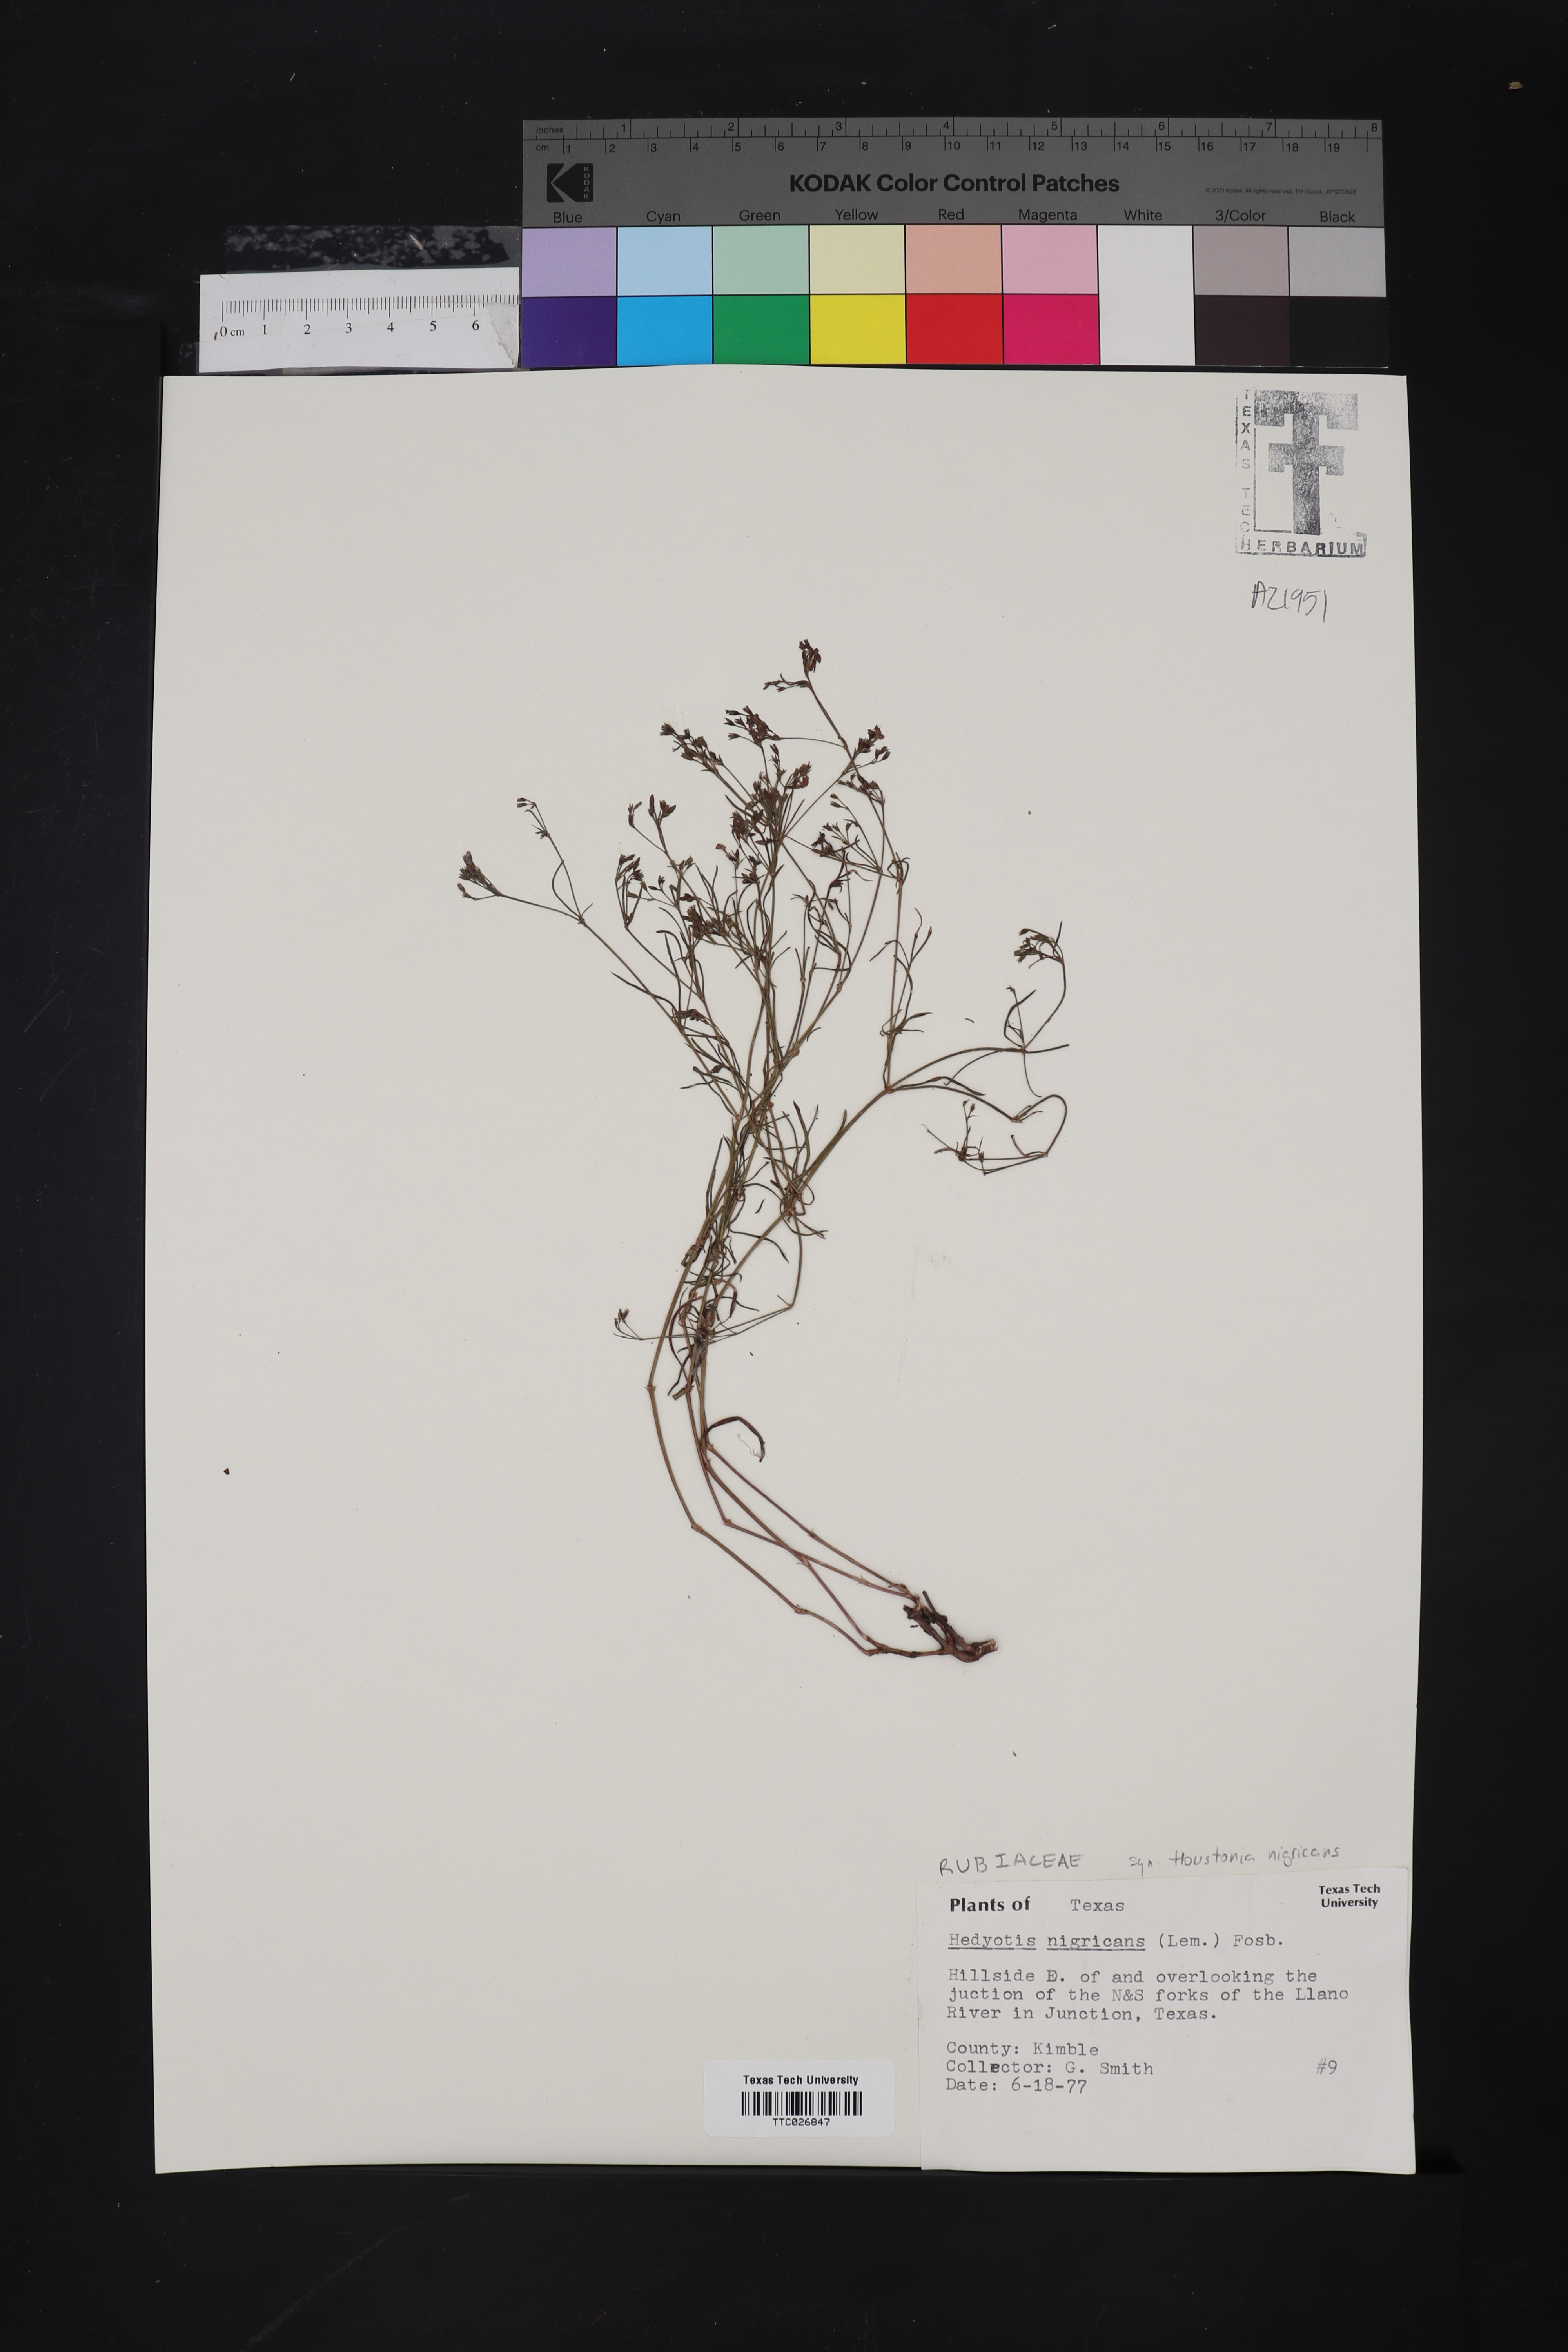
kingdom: Plantae
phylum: Tracheophyta
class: Magnoliopsida
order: Gentianales
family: Rubiaceae
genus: Stenaria
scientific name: Stenaria nigricans
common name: Diamondflowers
